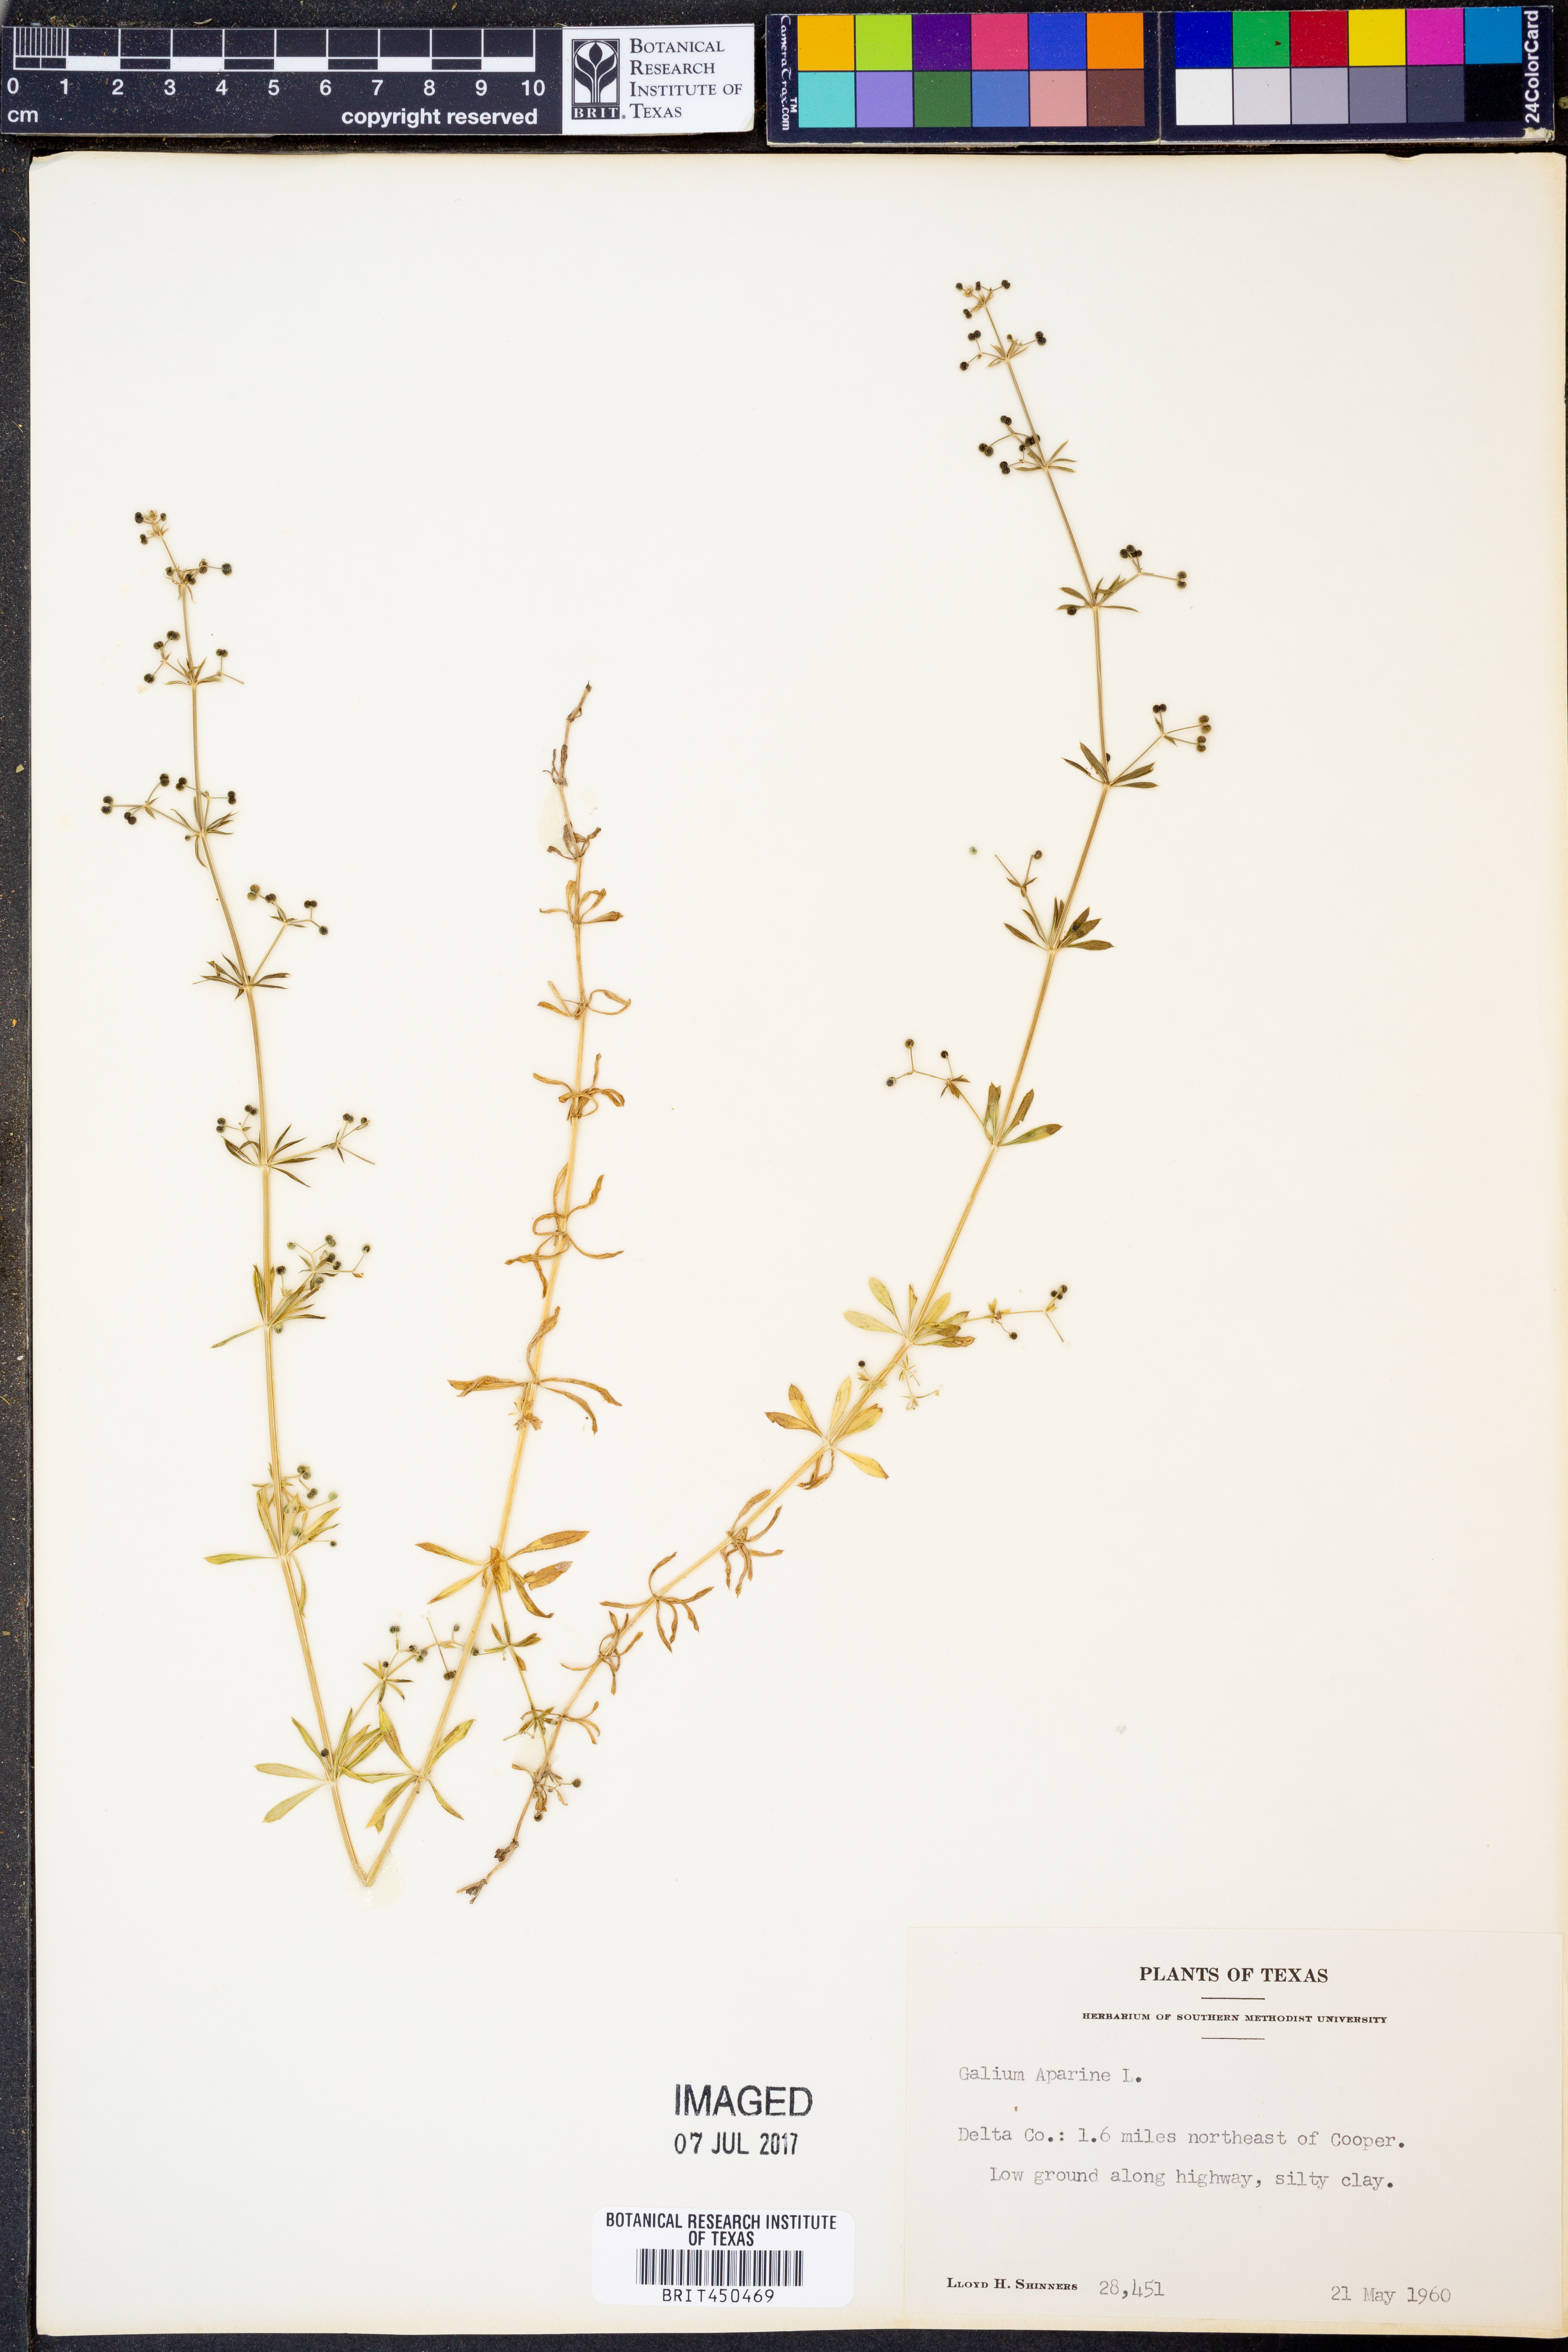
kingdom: Plantae
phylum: Tracheophyta
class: Magnoliopsida
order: Gentianales
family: Rubiaceae
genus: Galium
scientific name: Galium aparine
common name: Cleavers
